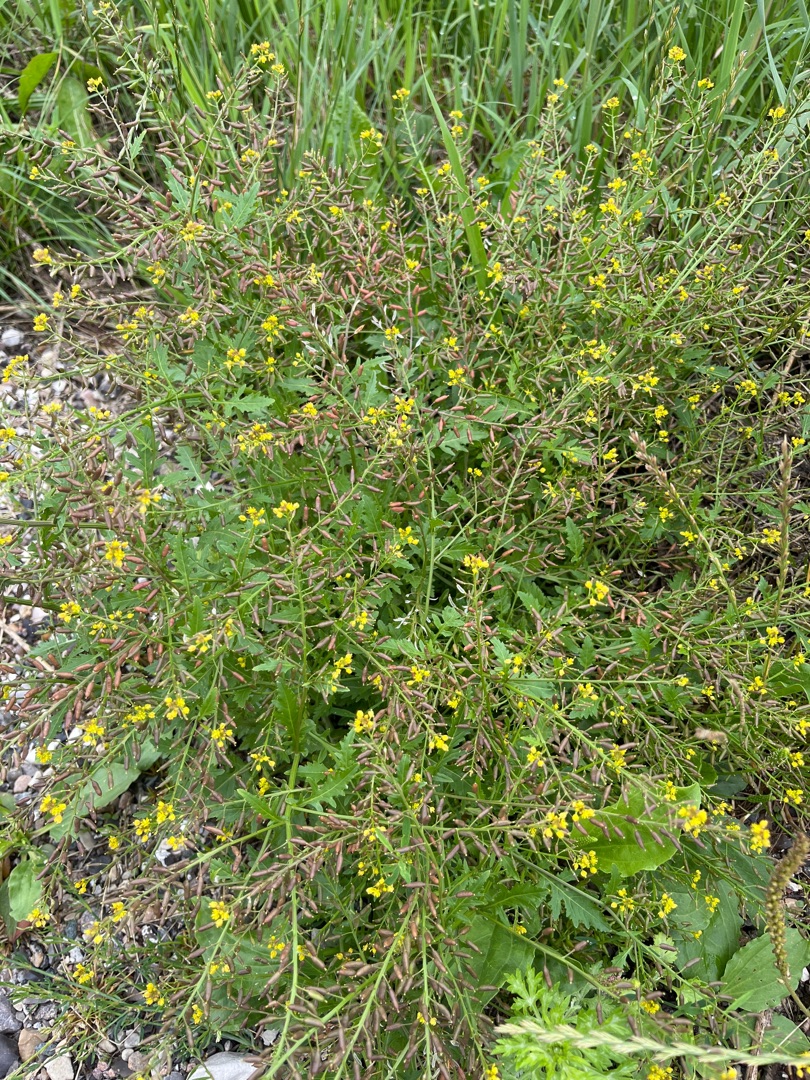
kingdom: Plantae
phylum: Tracheophyta
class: Magnoliopsida
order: Brassicales
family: Brassicaceae
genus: Rorippa
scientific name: Rorippa palustris
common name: Kær-guldkarse
